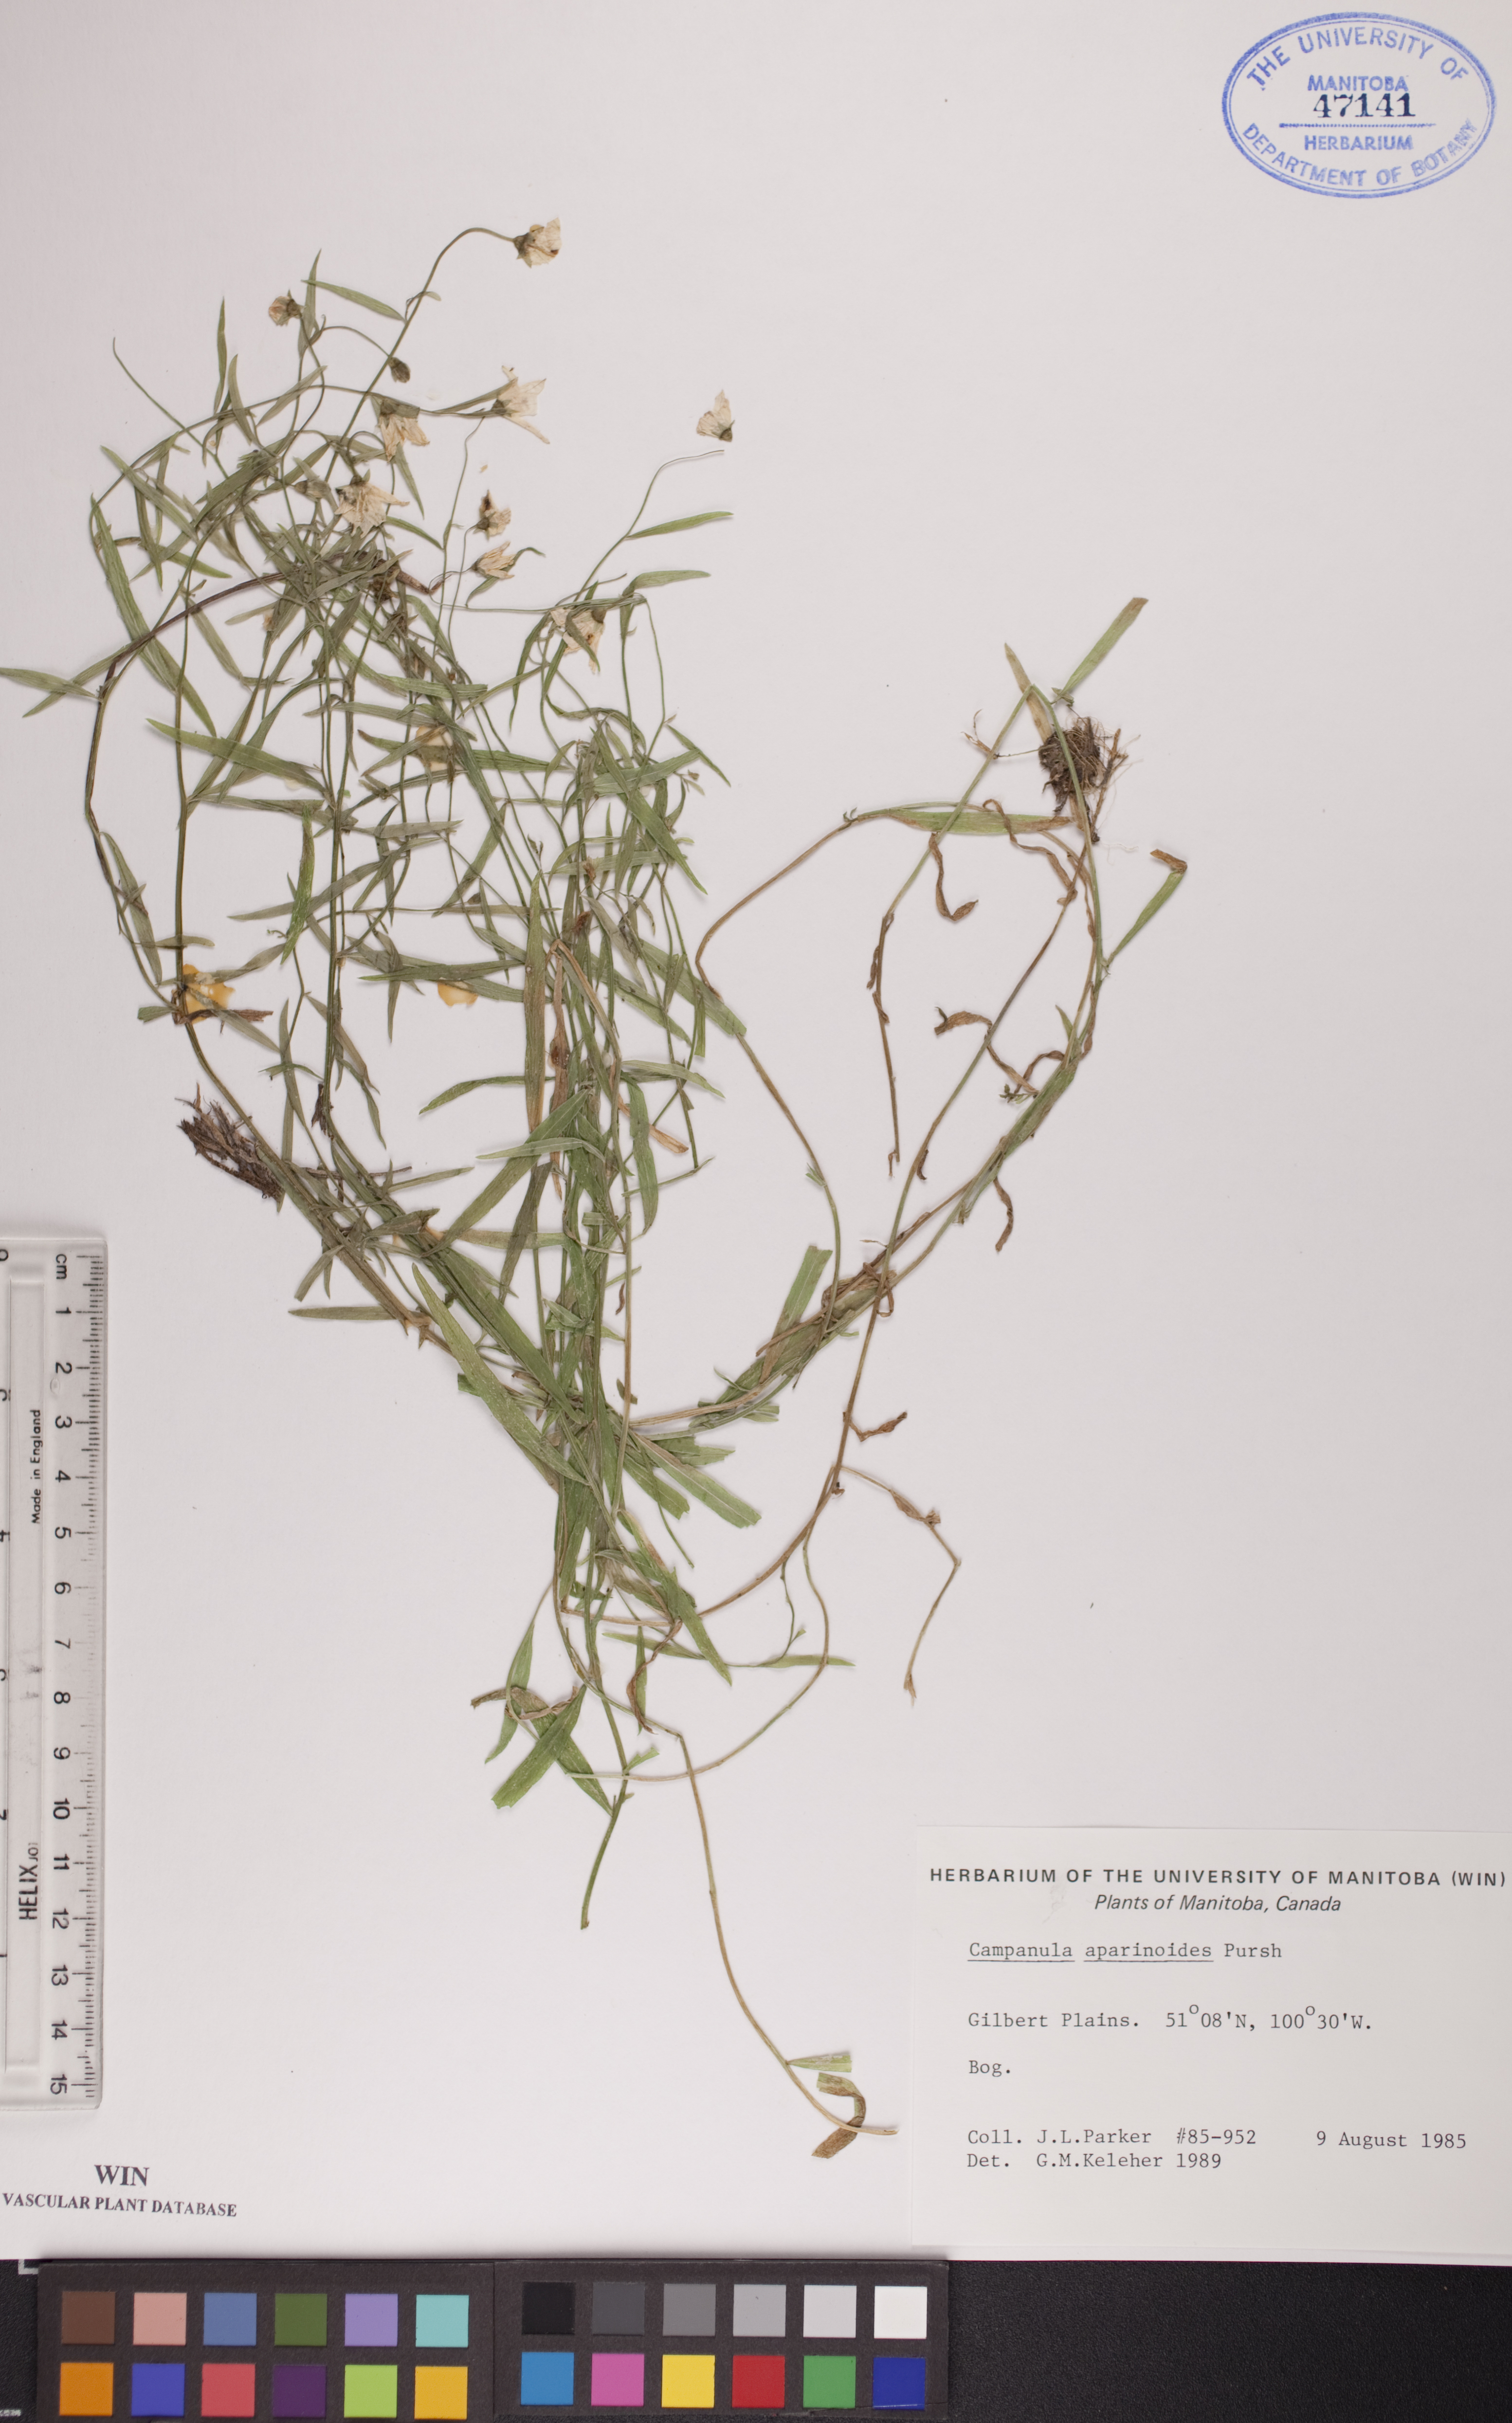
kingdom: Plantae
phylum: Tracheophyta
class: Magnoliopsida
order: Asterales
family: Campanulaceae
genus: Palustricodon
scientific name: Palustricodon aparinoides
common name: Bedstraw bellflower
